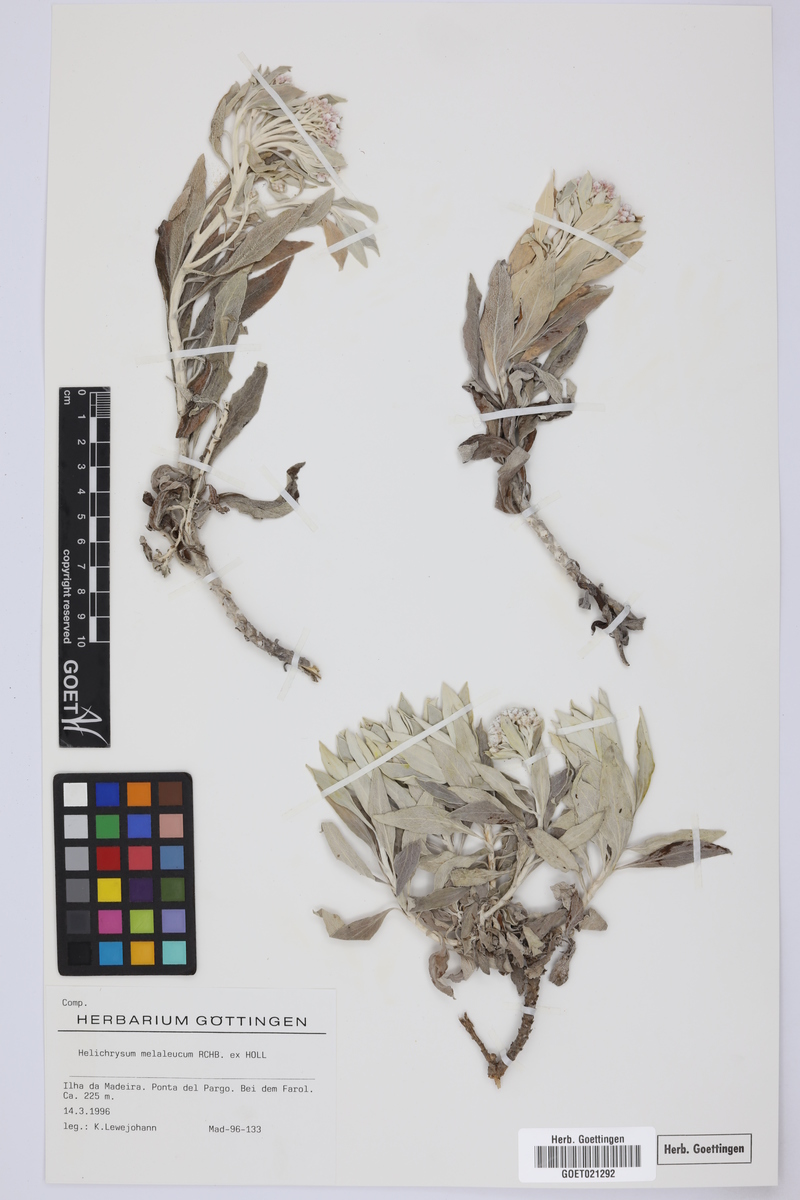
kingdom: Plantae
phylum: Tracheophyta
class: Magnoliopsida
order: Asterales
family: Asteraceae
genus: Helichrysum
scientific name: Helichrysum melaleucum
